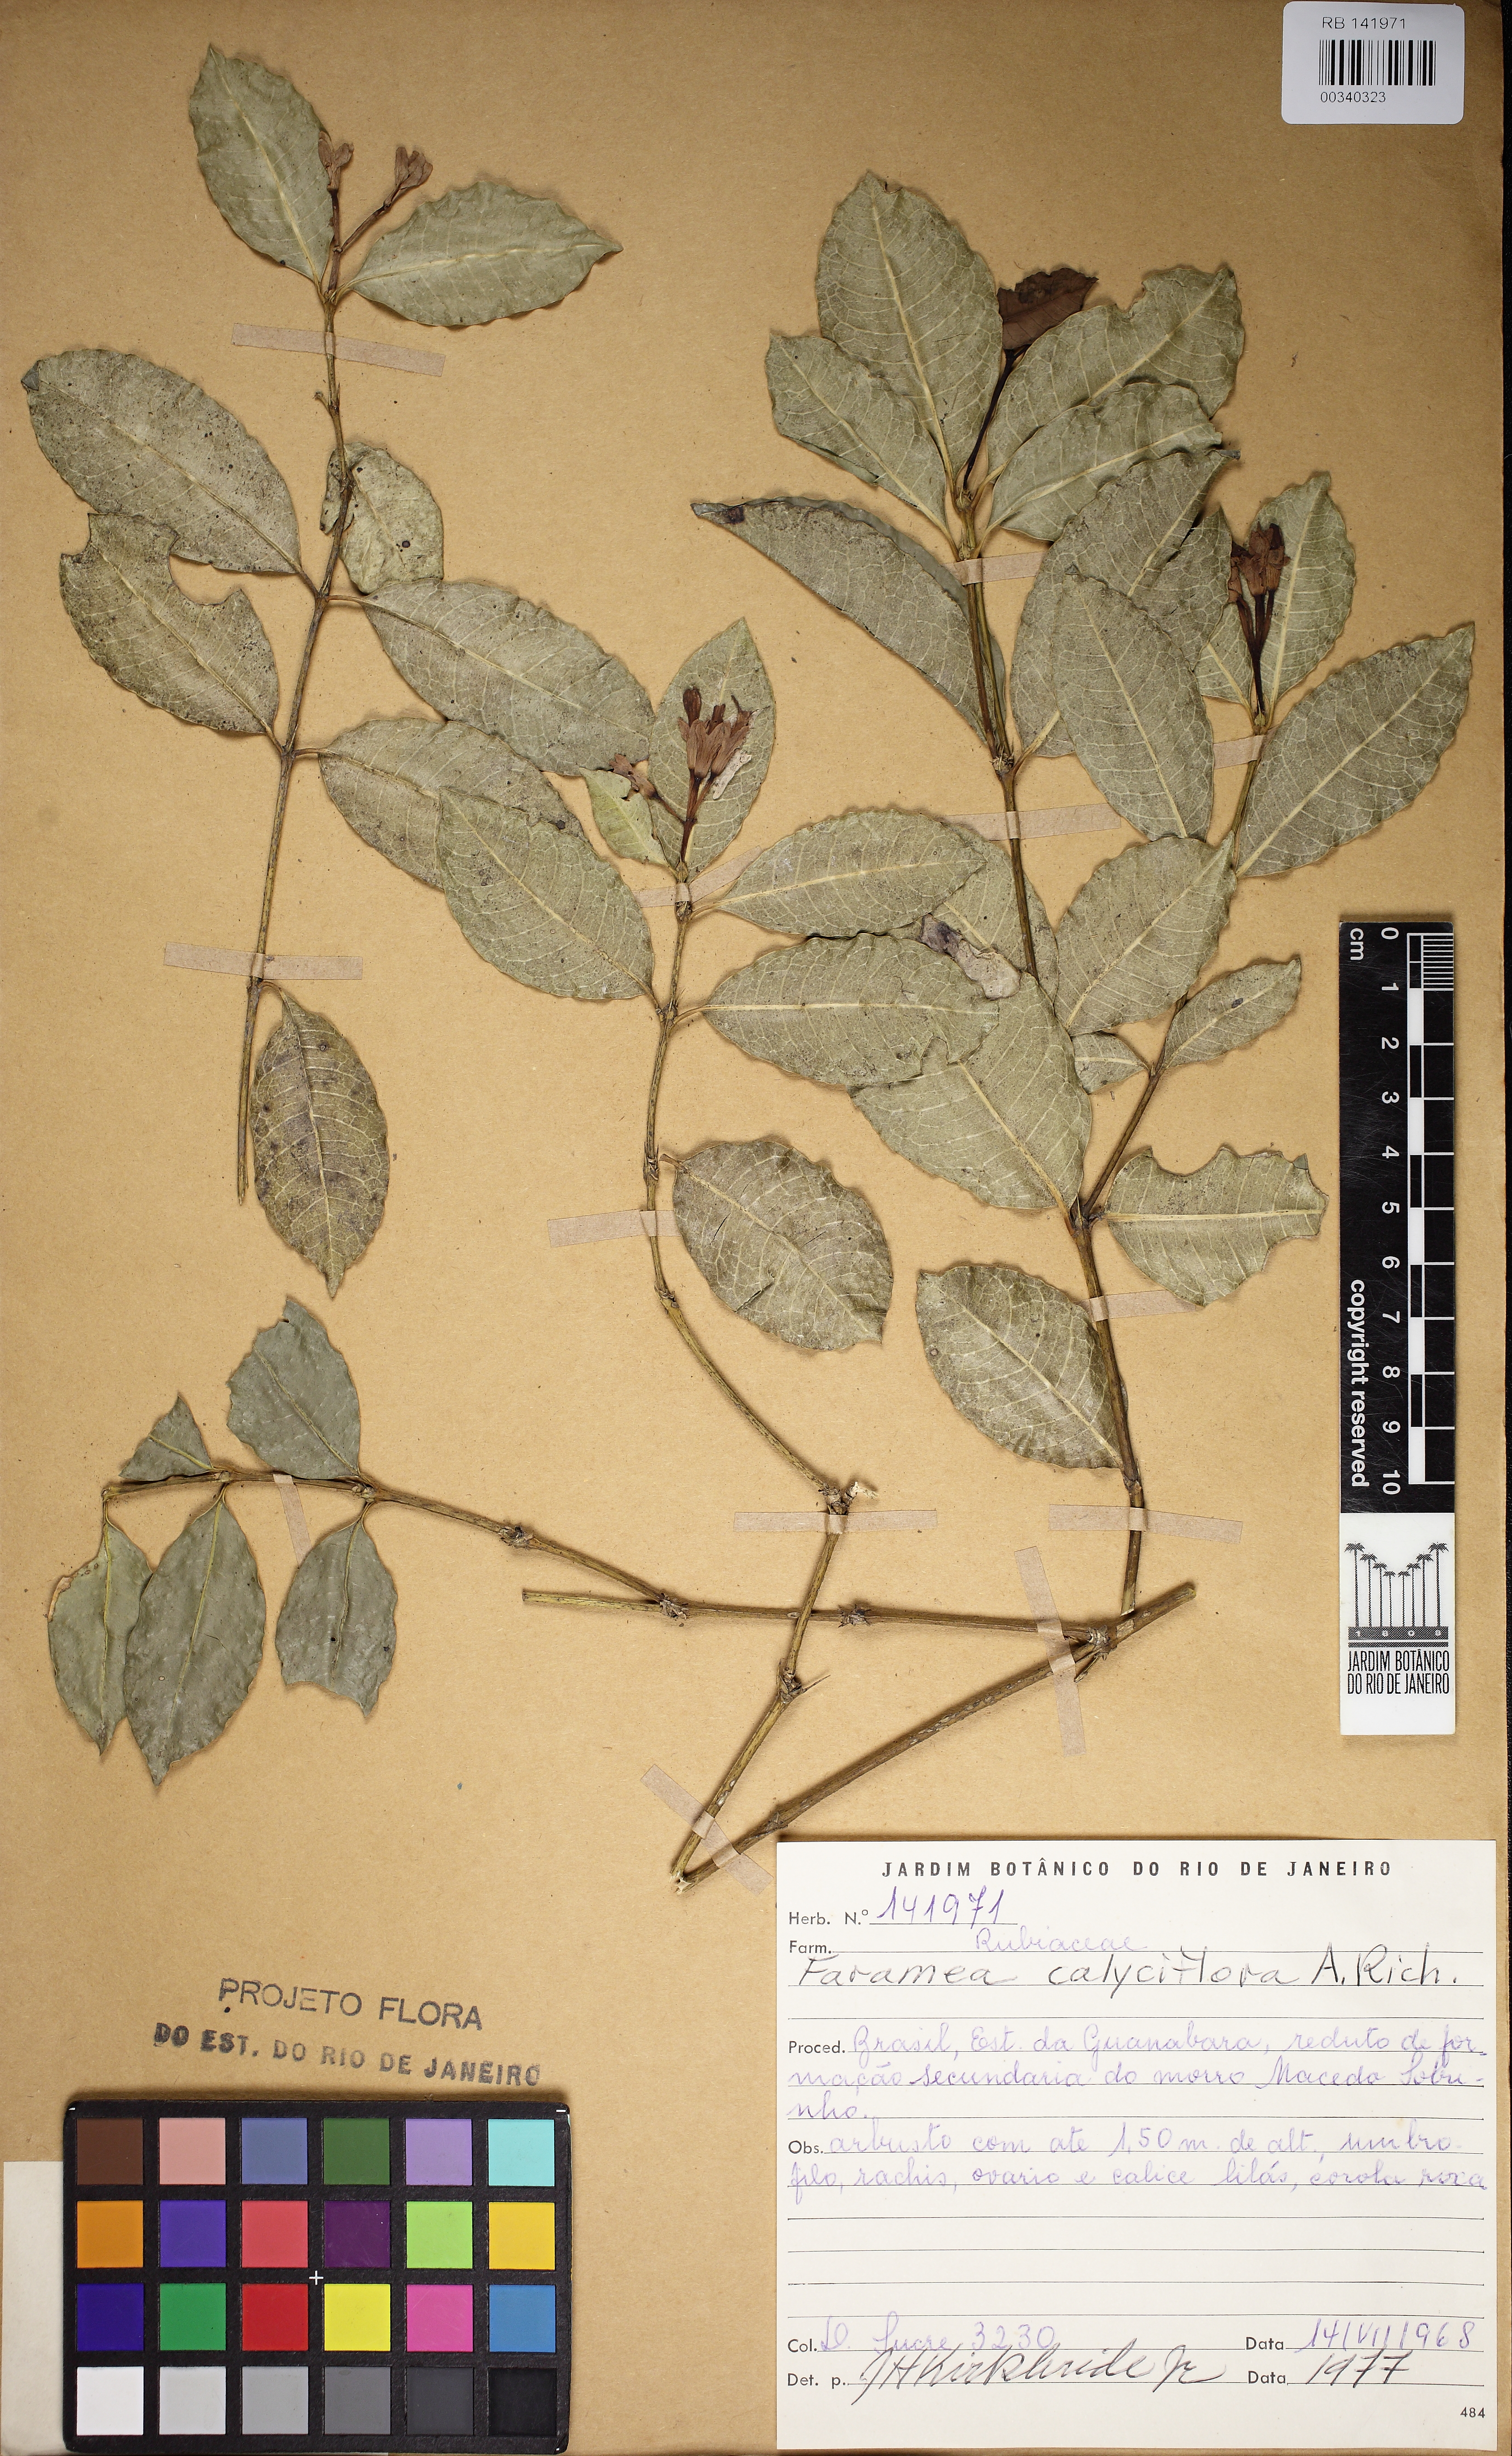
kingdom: Plantae
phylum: Tracheophyta
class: Magnoliopsida
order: Gentianales
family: Rubiaceae
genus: Faramea
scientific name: Faramea calyciflora
